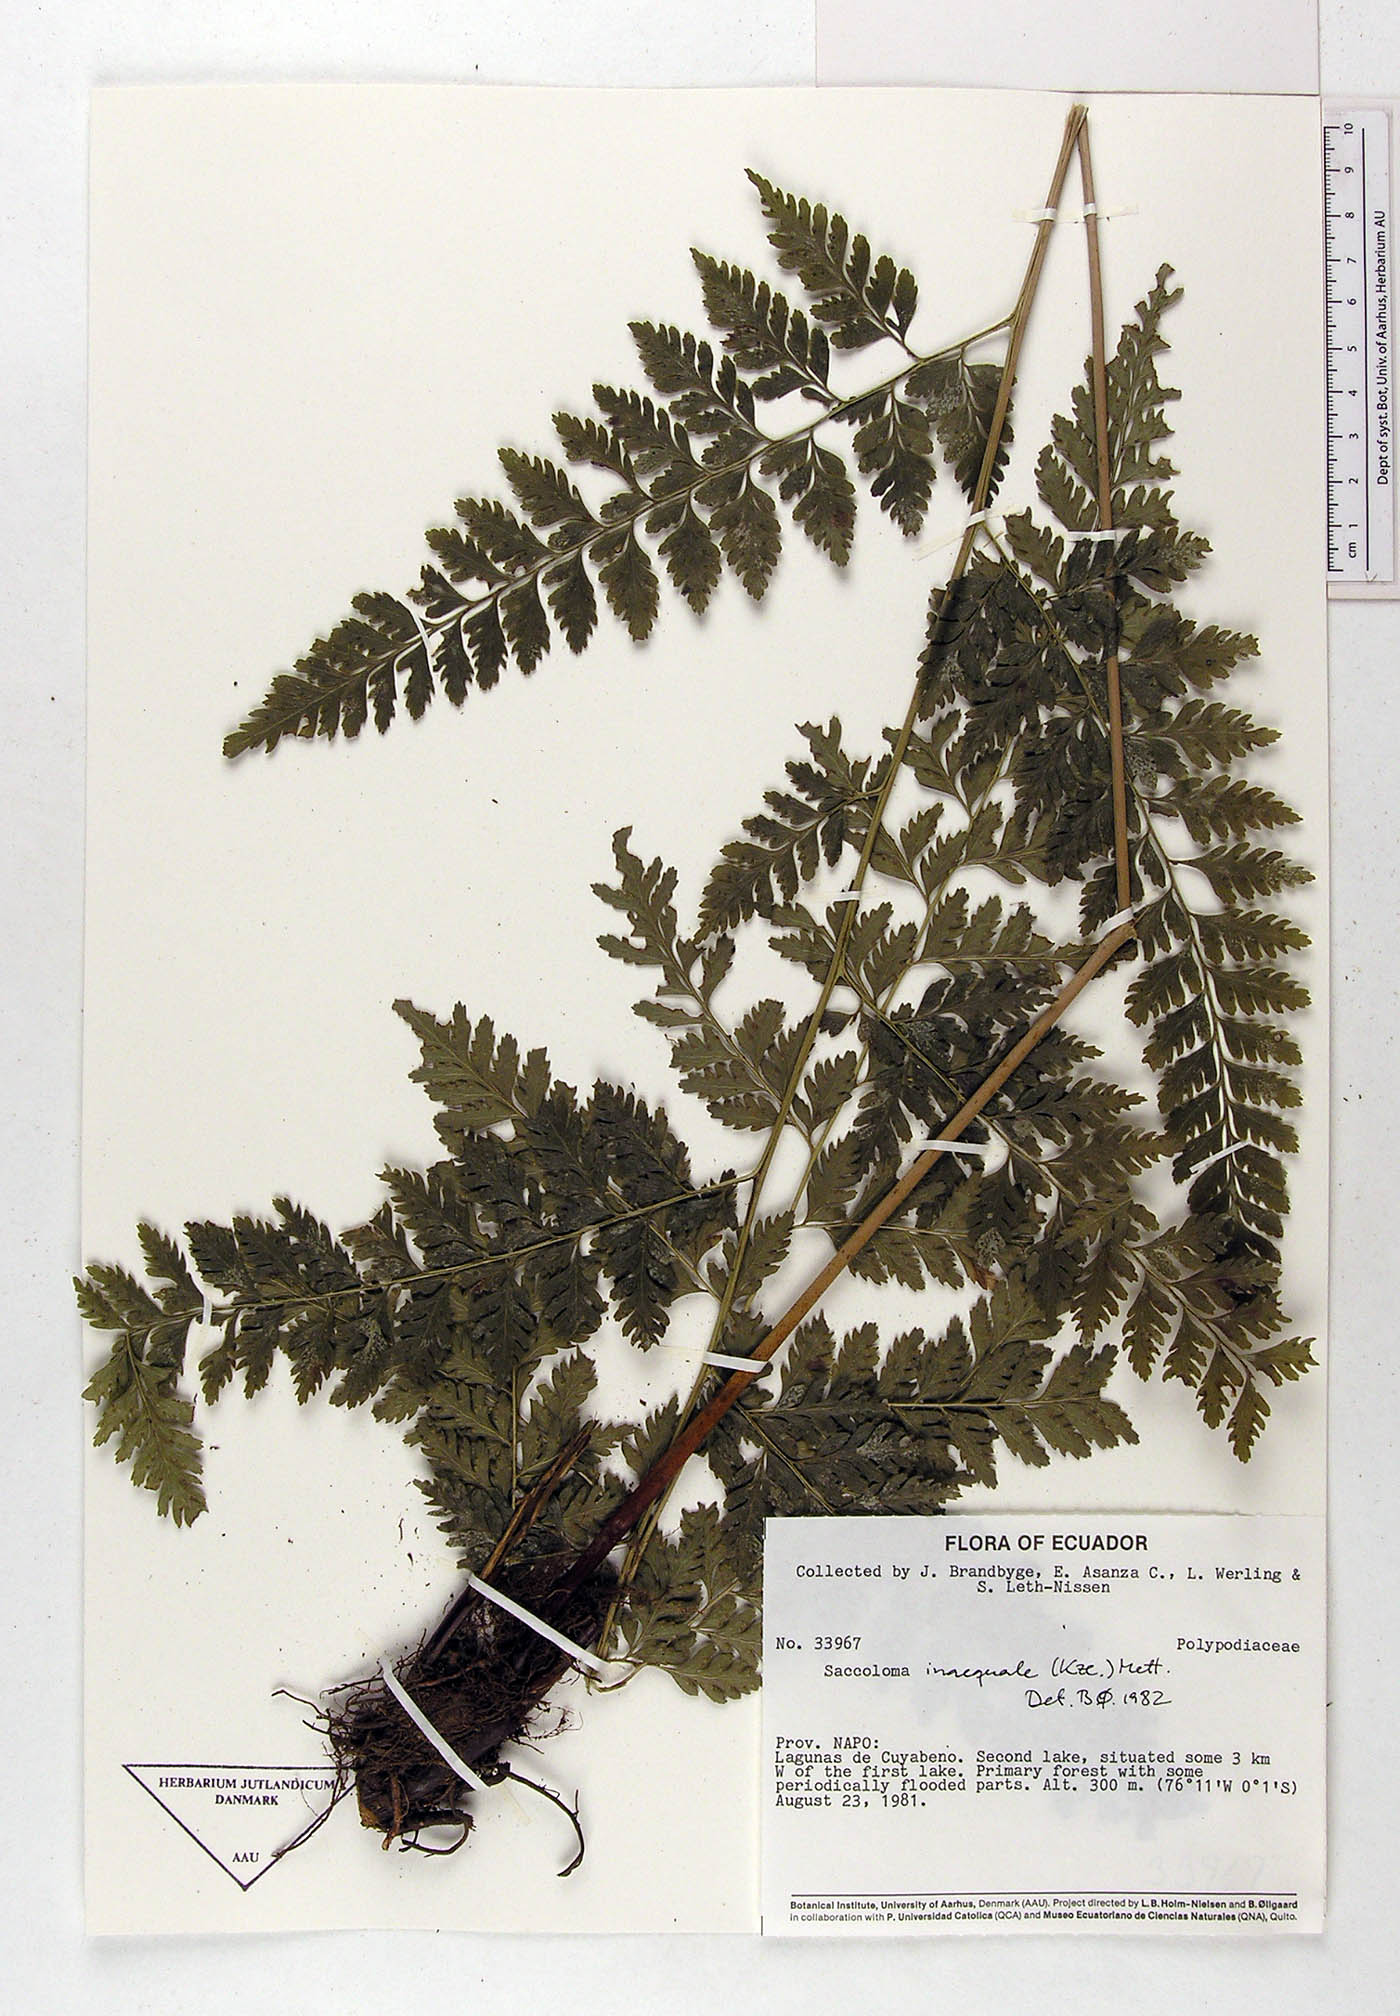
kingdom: Plantae
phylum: Tracheophyta
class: Polypodiopsida
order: Polypodiales
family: Saccolomataceae
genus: Saccoloma
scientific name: Saccoloma inaequale
